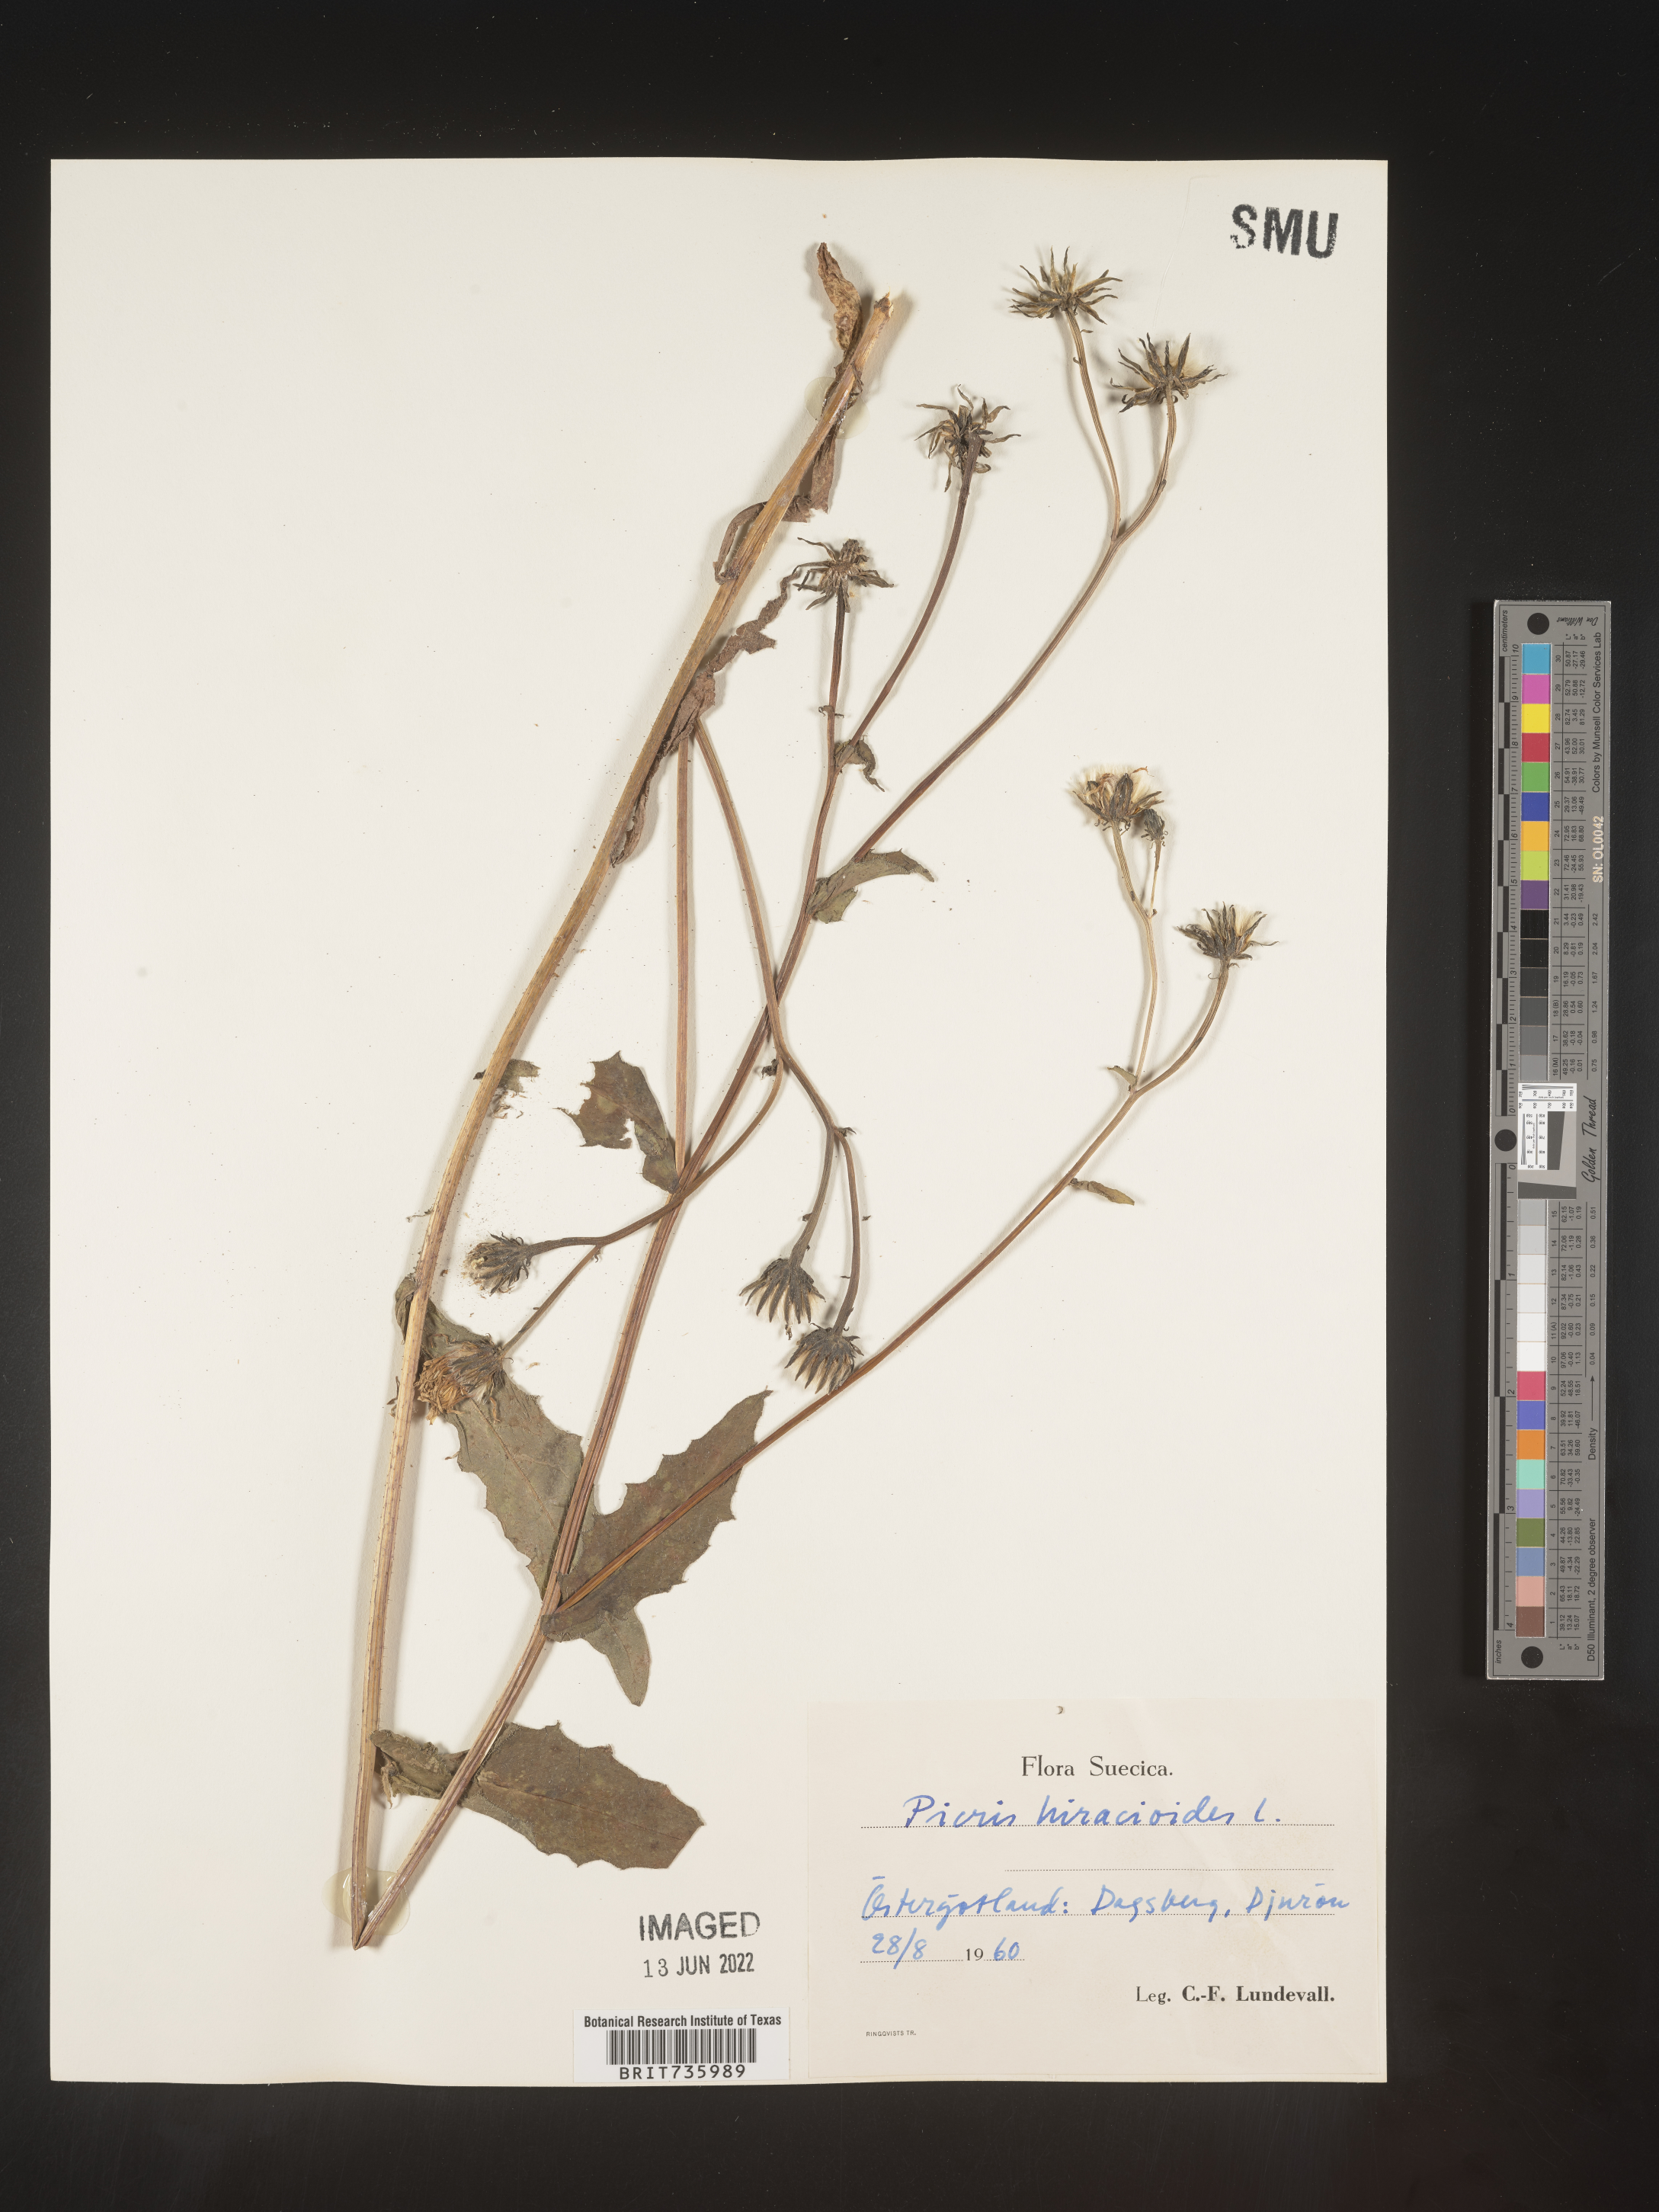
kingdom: Plantae
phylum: Tracheophyta
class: Magnoliopsida
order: Asterales
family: Asteraceae
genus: Picris
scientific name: Picris
